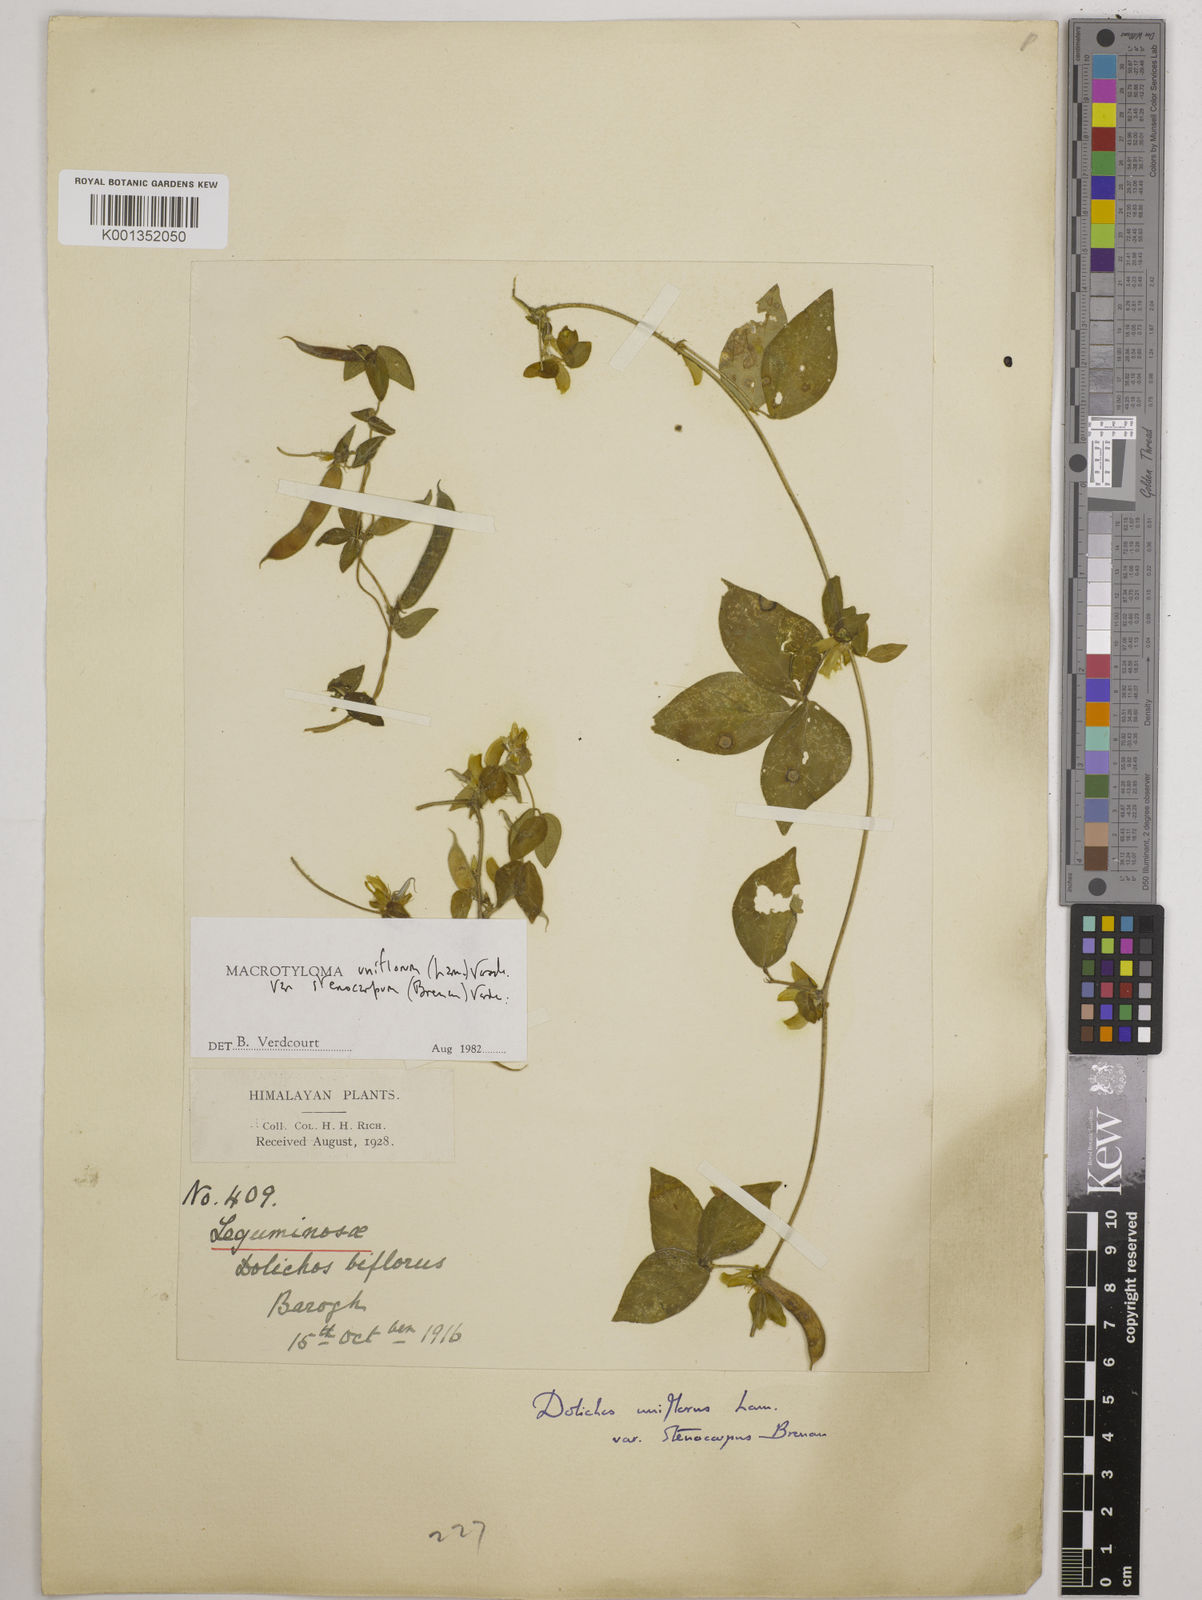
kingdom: Plantae
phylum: Tracheophyta
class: Magnoliopsida
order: Fabales
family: Fabaceae
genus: Macrotyloma
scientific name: Macrotyloma
